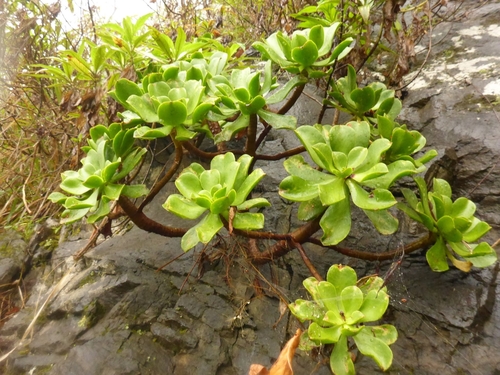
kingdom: Plantae
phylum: Tracheophyta
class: Magnoliopsida
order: Saxifragales
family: Crassulaceae
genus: Aeonium
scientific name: Aeonium glutinosum
